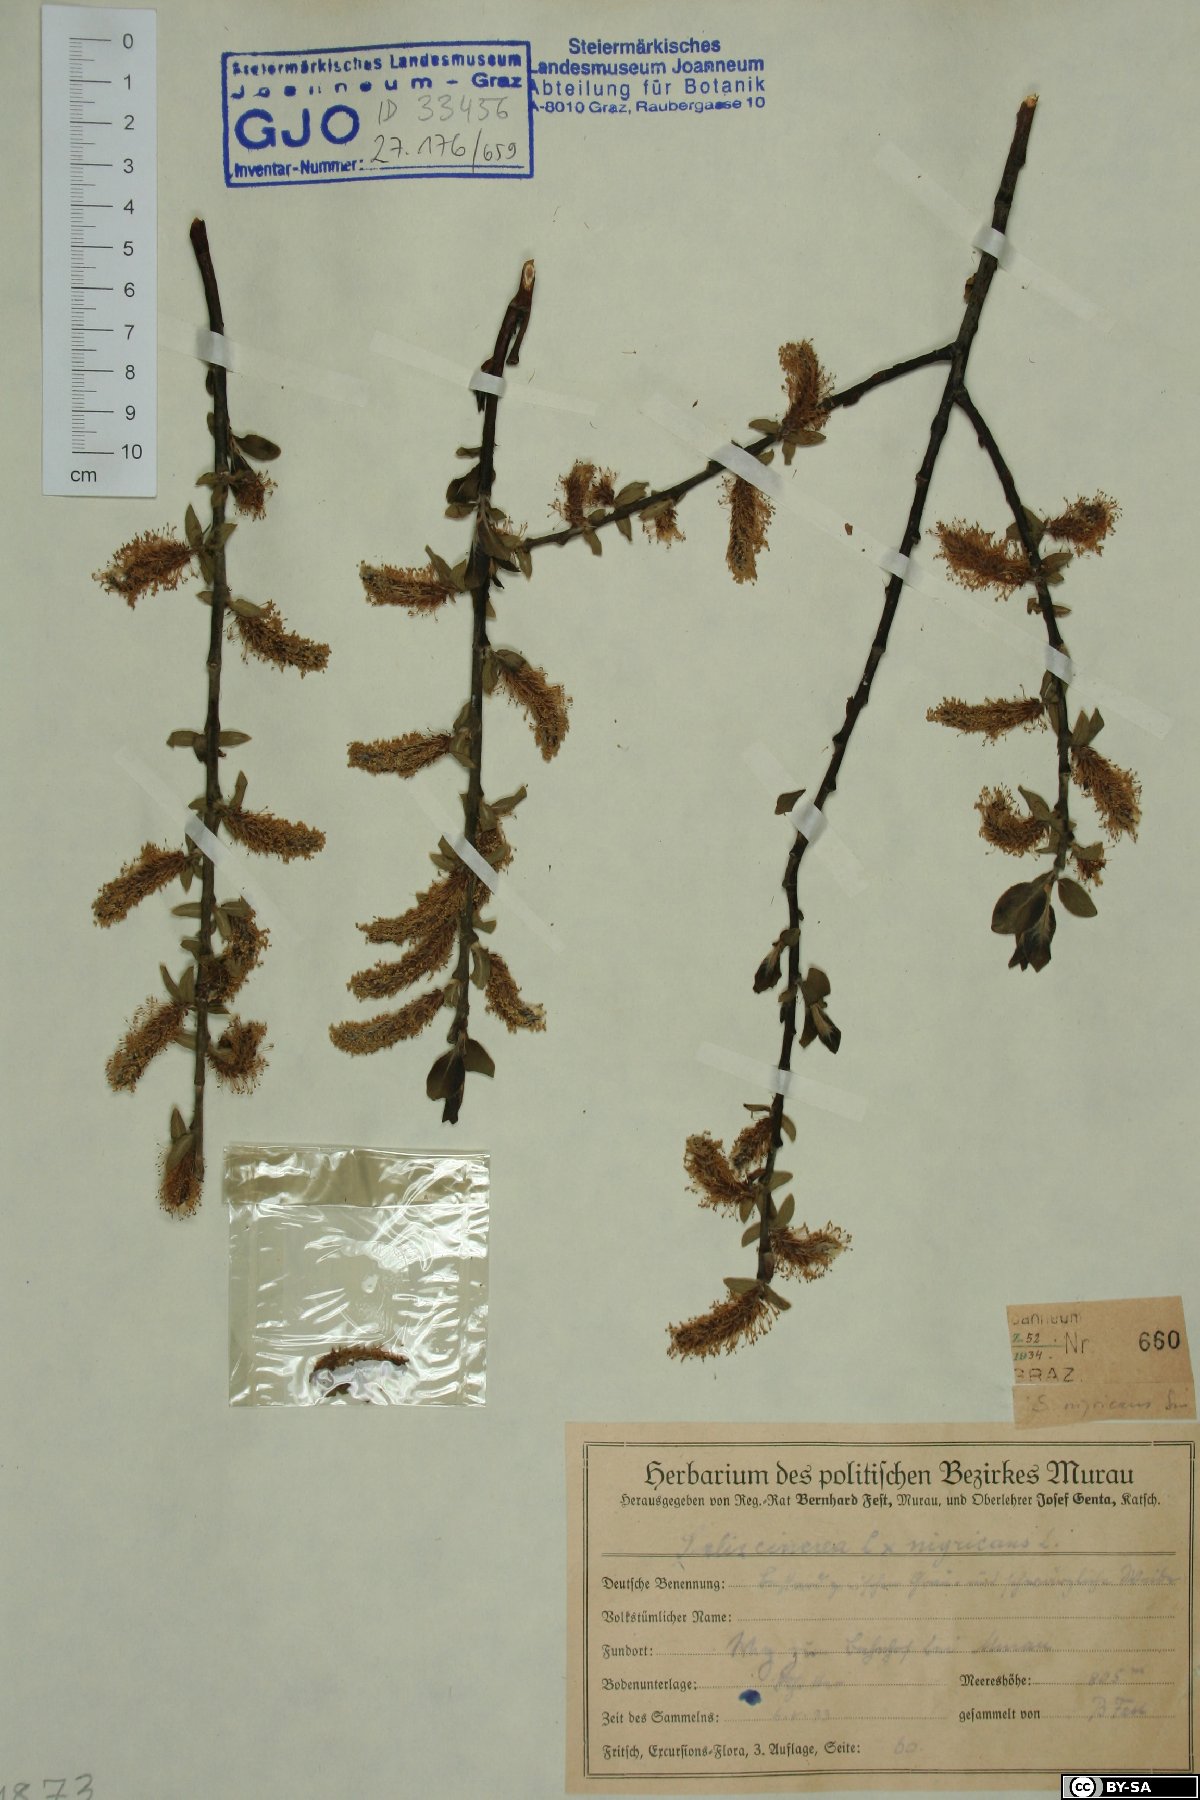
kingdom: Plantae
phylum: Tracheophyta
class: Magnoliopsida
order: Malpighiales
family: Salicaceae
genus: Salix
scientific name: Salix myrsinifolia
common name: Dark-leaved willow
